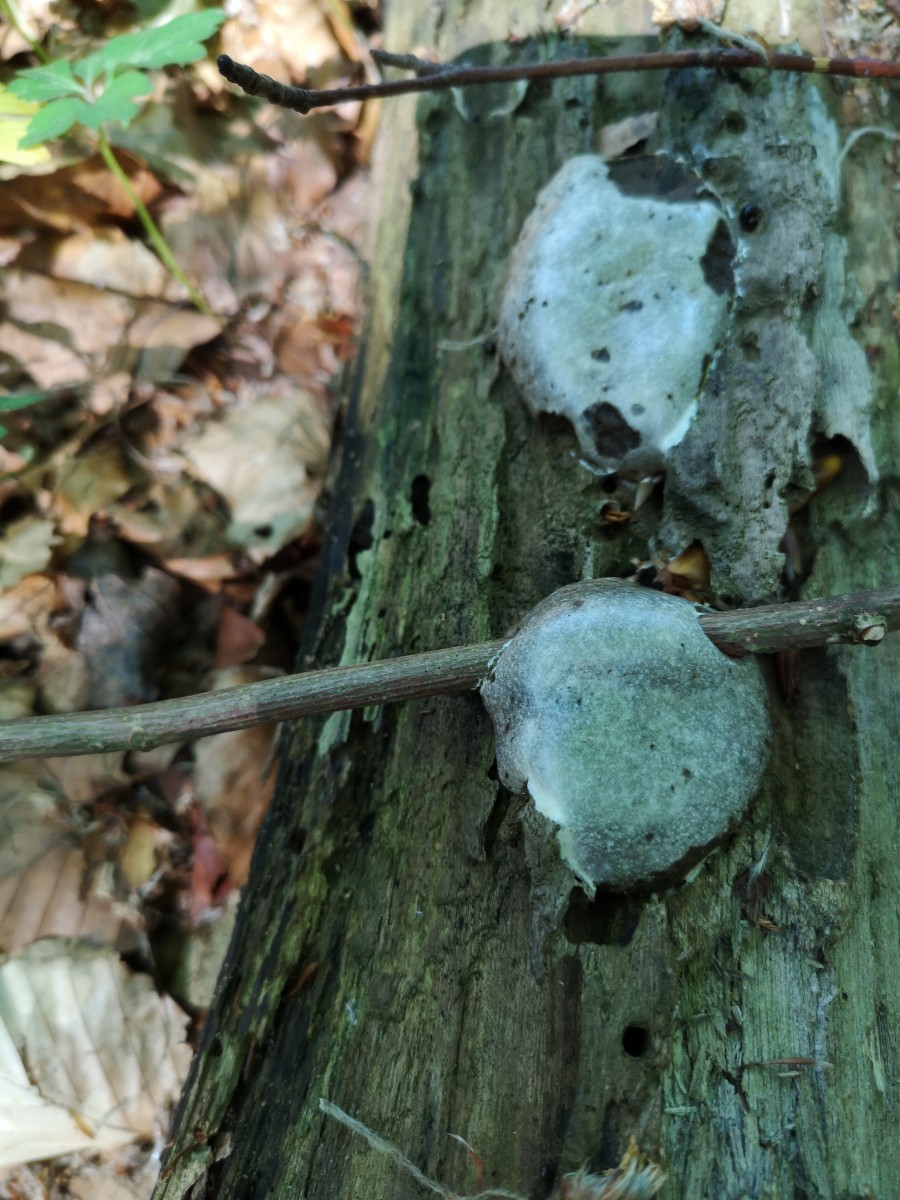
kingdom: Protozoa
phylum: Mycetozoa
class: Myxomycetes
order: Cribrariales
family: Tubiferaceae
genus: Reticularia
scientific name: Reticularia lycoperdon
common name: skinnende støvpude
